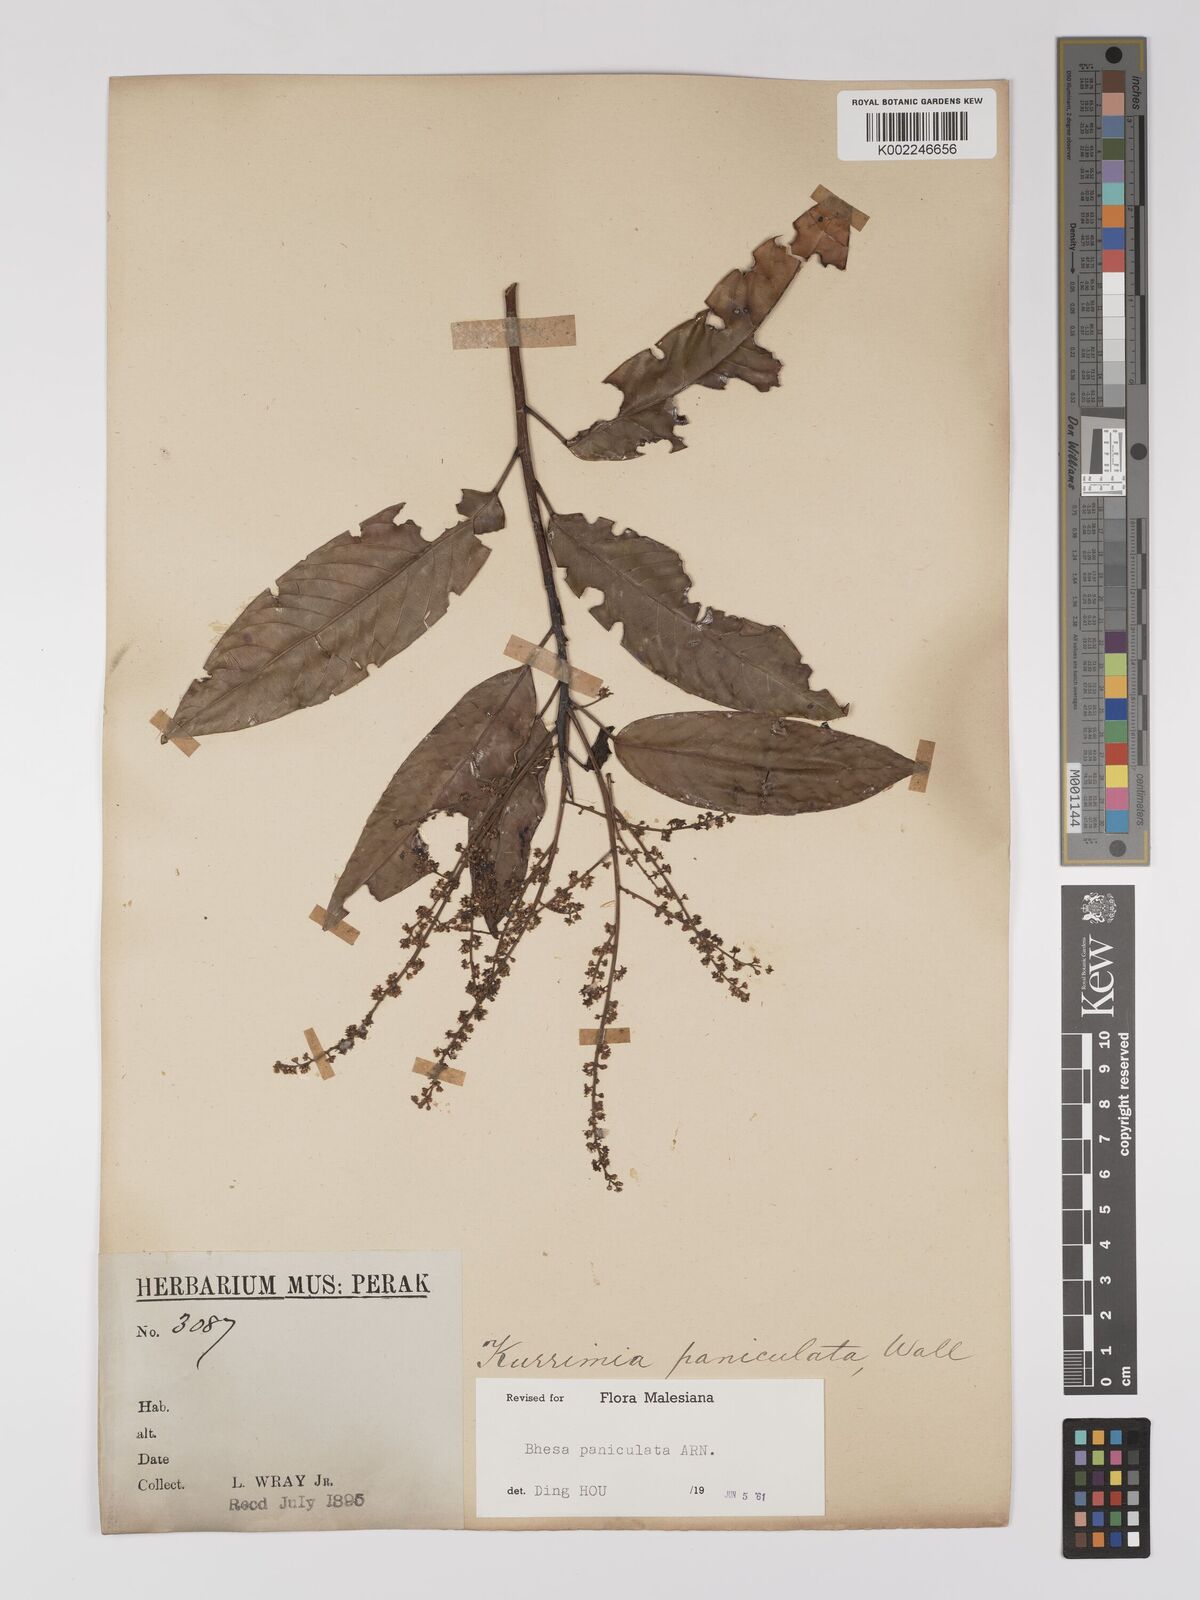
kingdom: Plantae
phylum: Tracheophyta
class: Magnoliopsida
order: Malpighiales
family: Centroplacaceae
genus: Bhesa
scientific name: Bhesa paniculata
